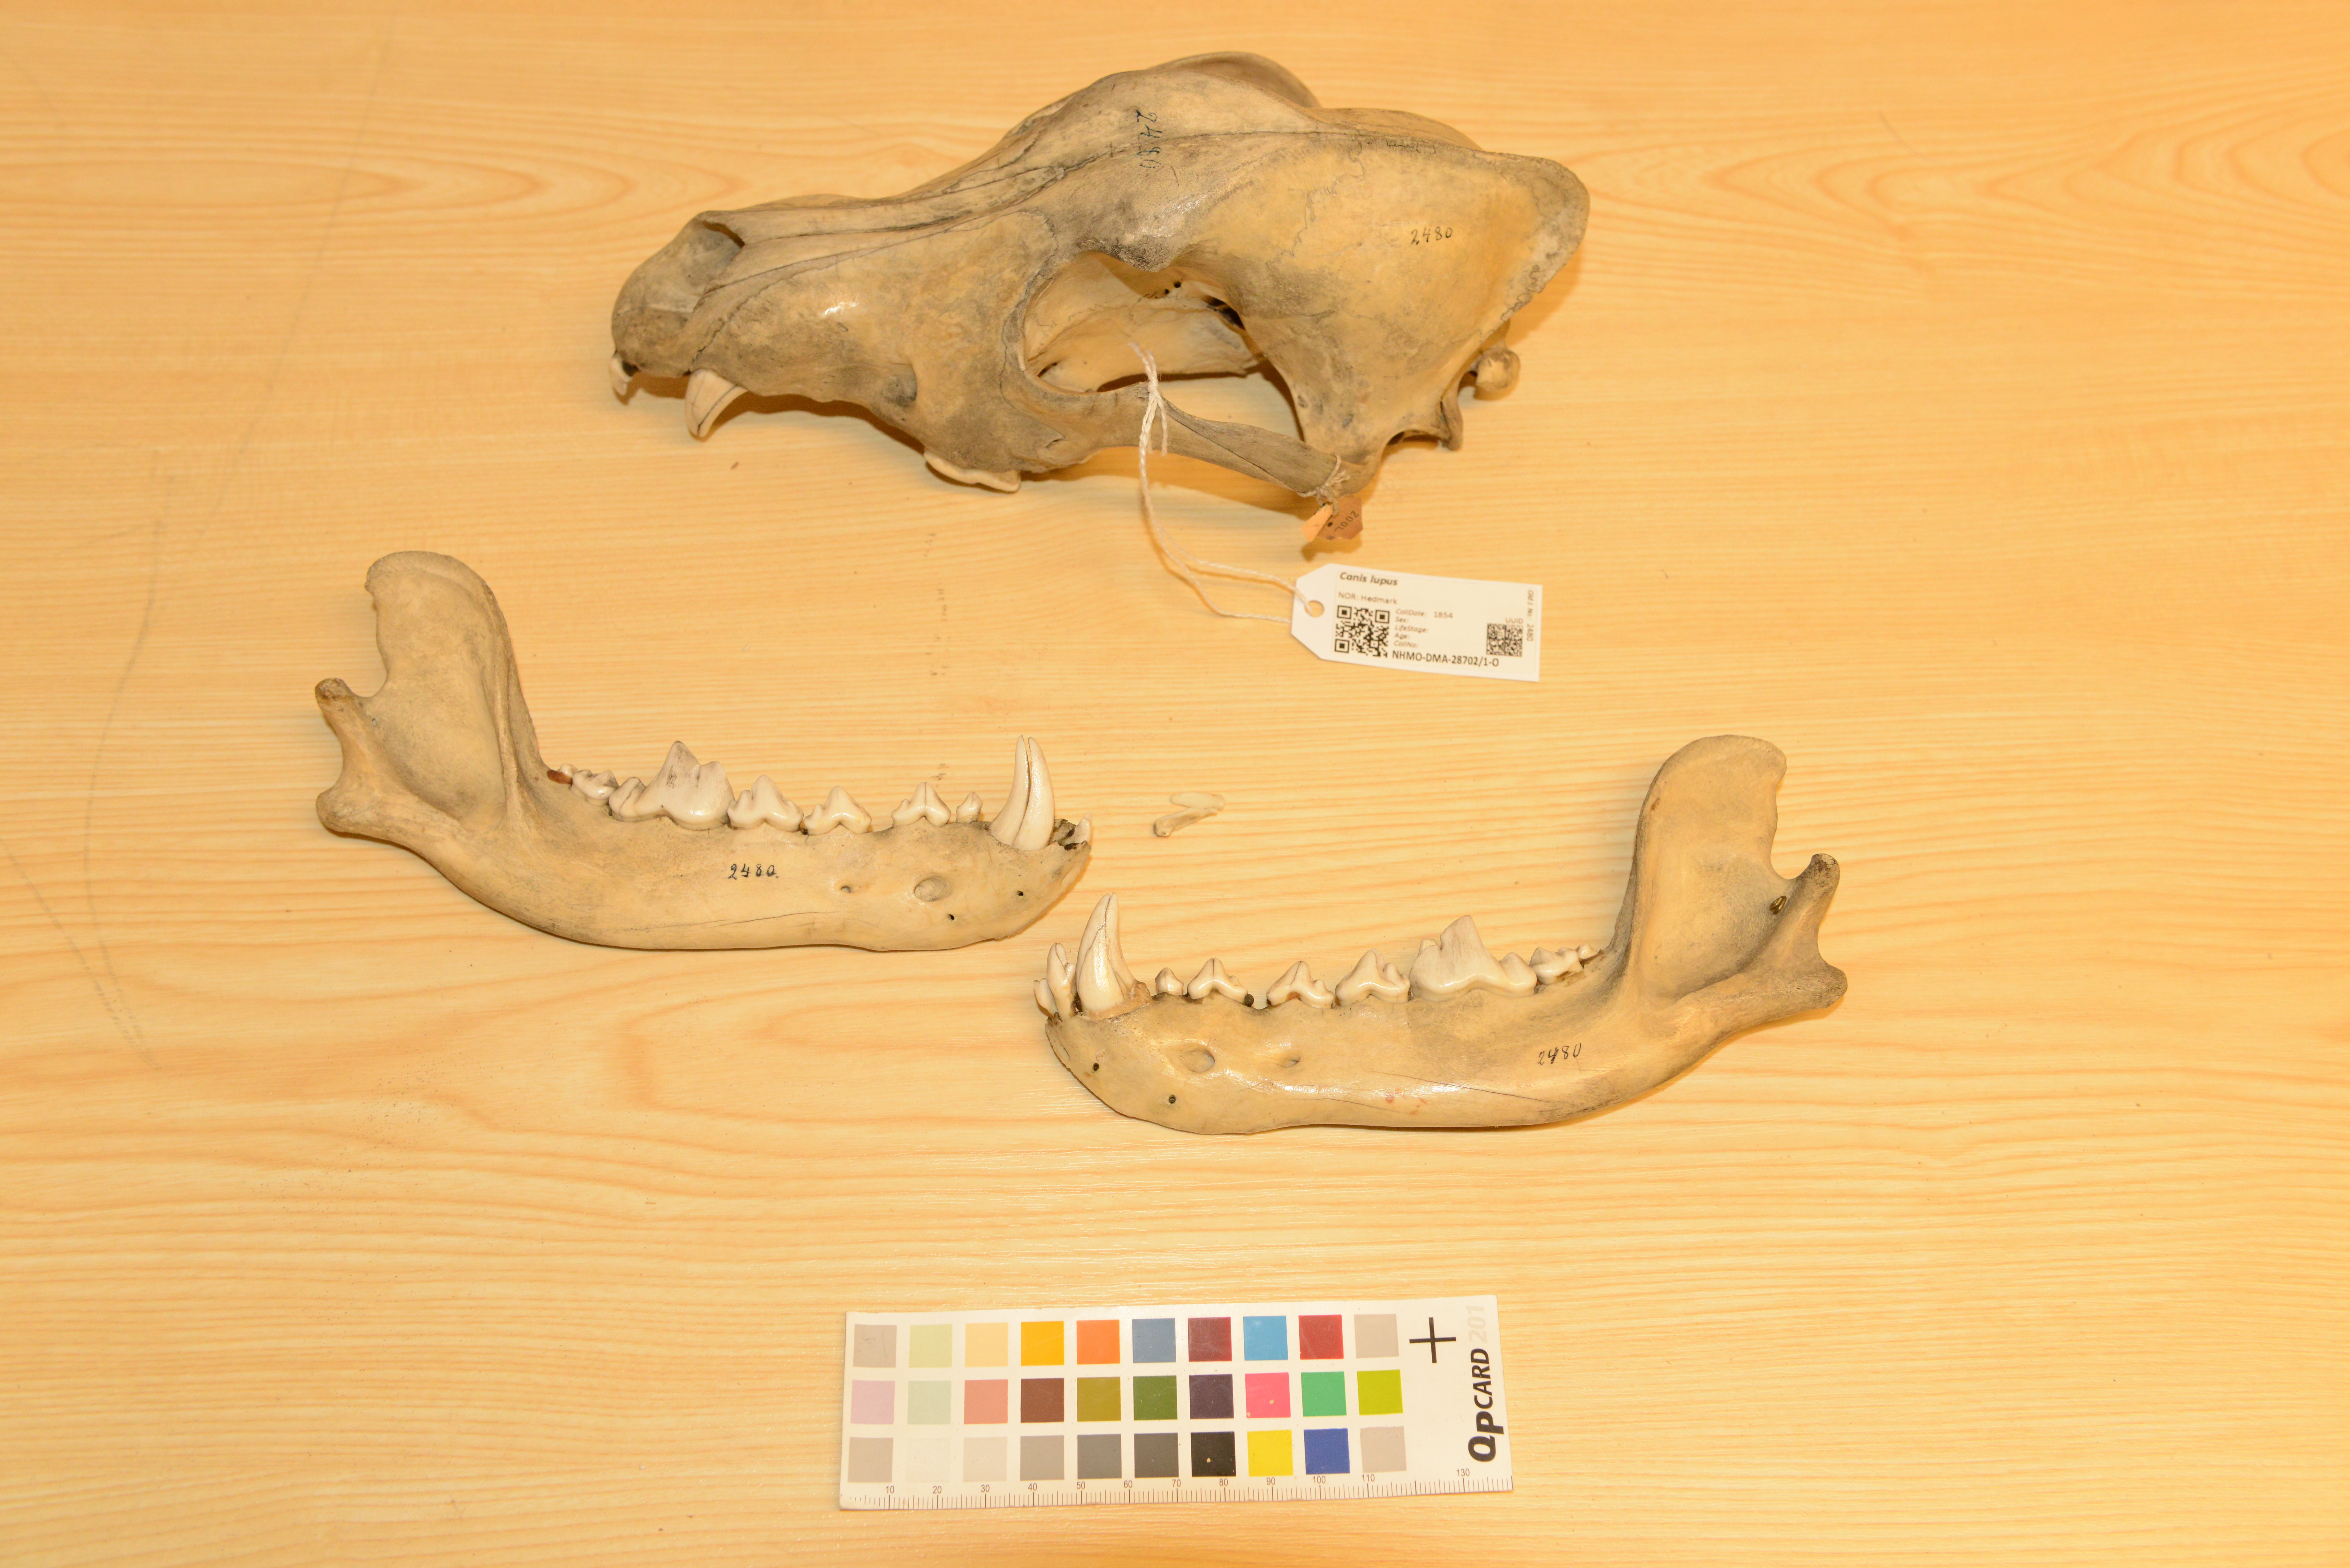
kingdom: Animalia
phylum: Chordata
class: Mammalia
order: Carnivora
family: Canidae
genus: Canis
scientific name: Canis lupus
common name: Gray wolf
